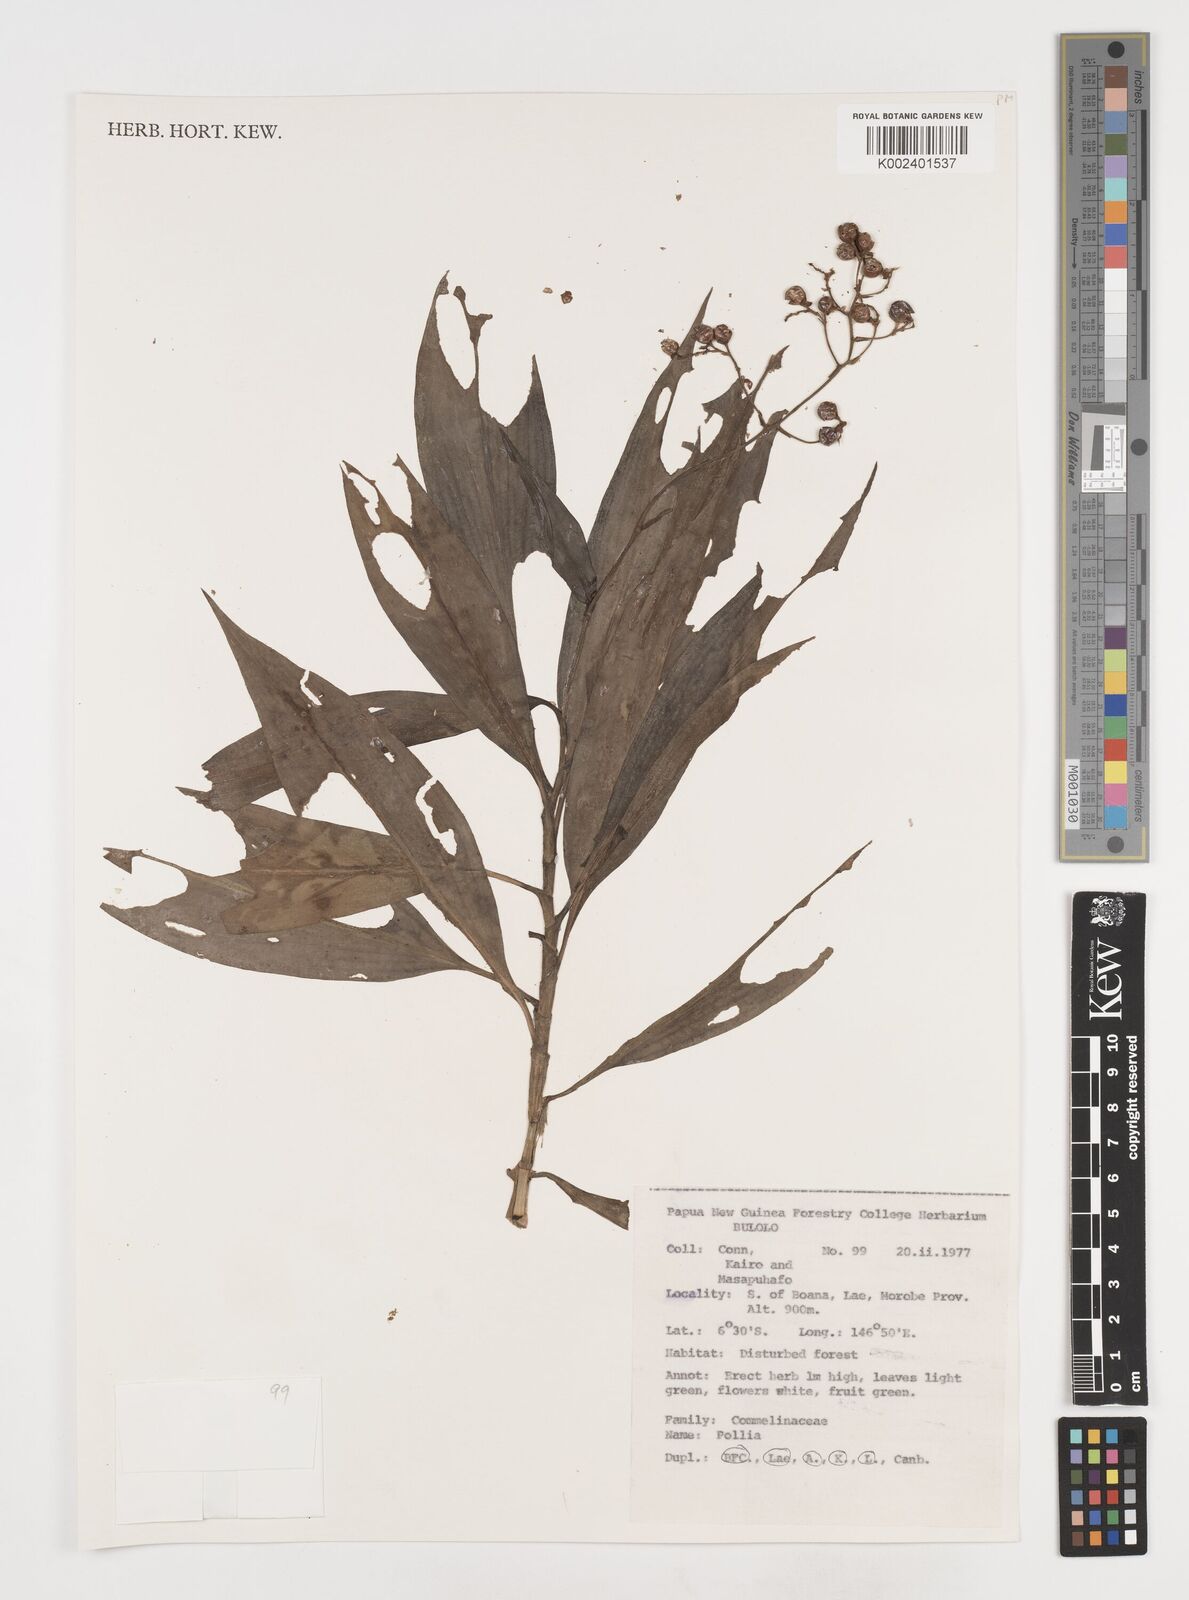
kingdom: Plantae
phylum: Tracheophyta
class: Liliopsida
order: Commelinales
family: Commelinaceae
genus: Pollia
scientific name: Pollia
